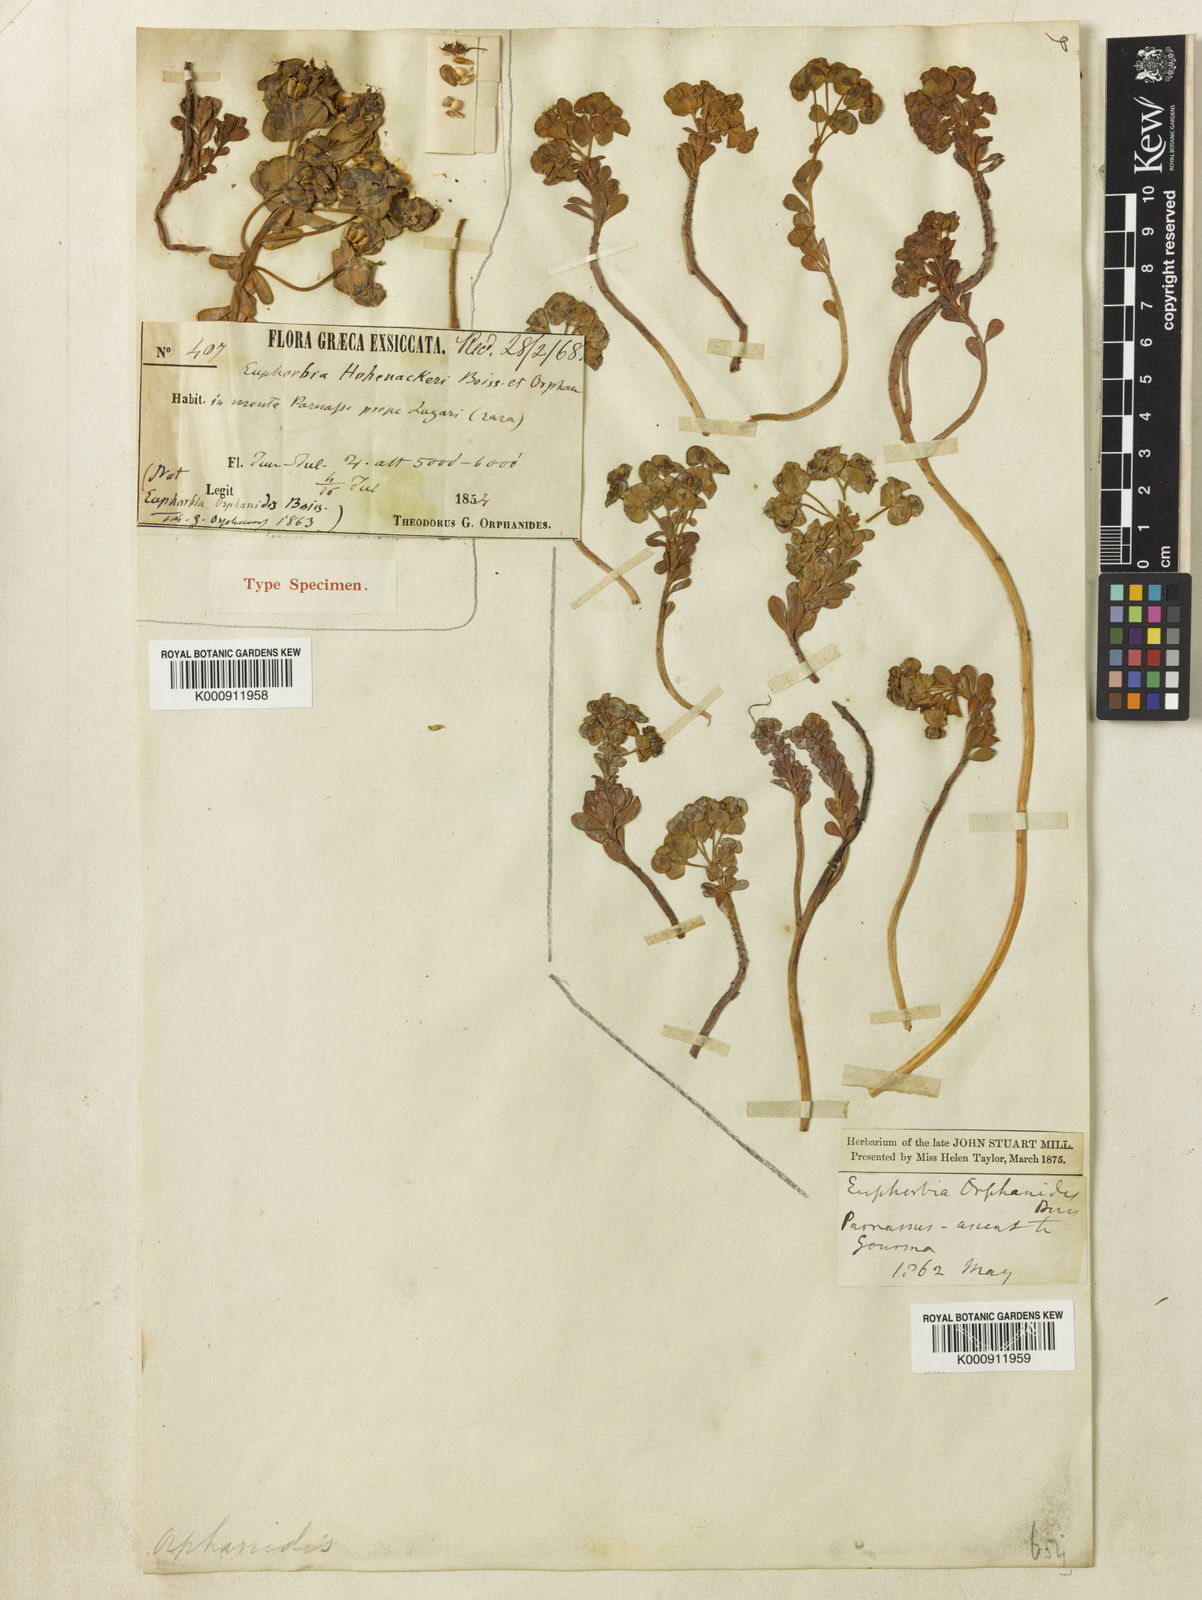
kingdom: Plantae
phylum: Tracheophyta
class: Magnoliopsida
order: Malpighiales
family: Euphorbiaceae
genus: Euphorbia
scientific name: Euphorbia orphanidis
